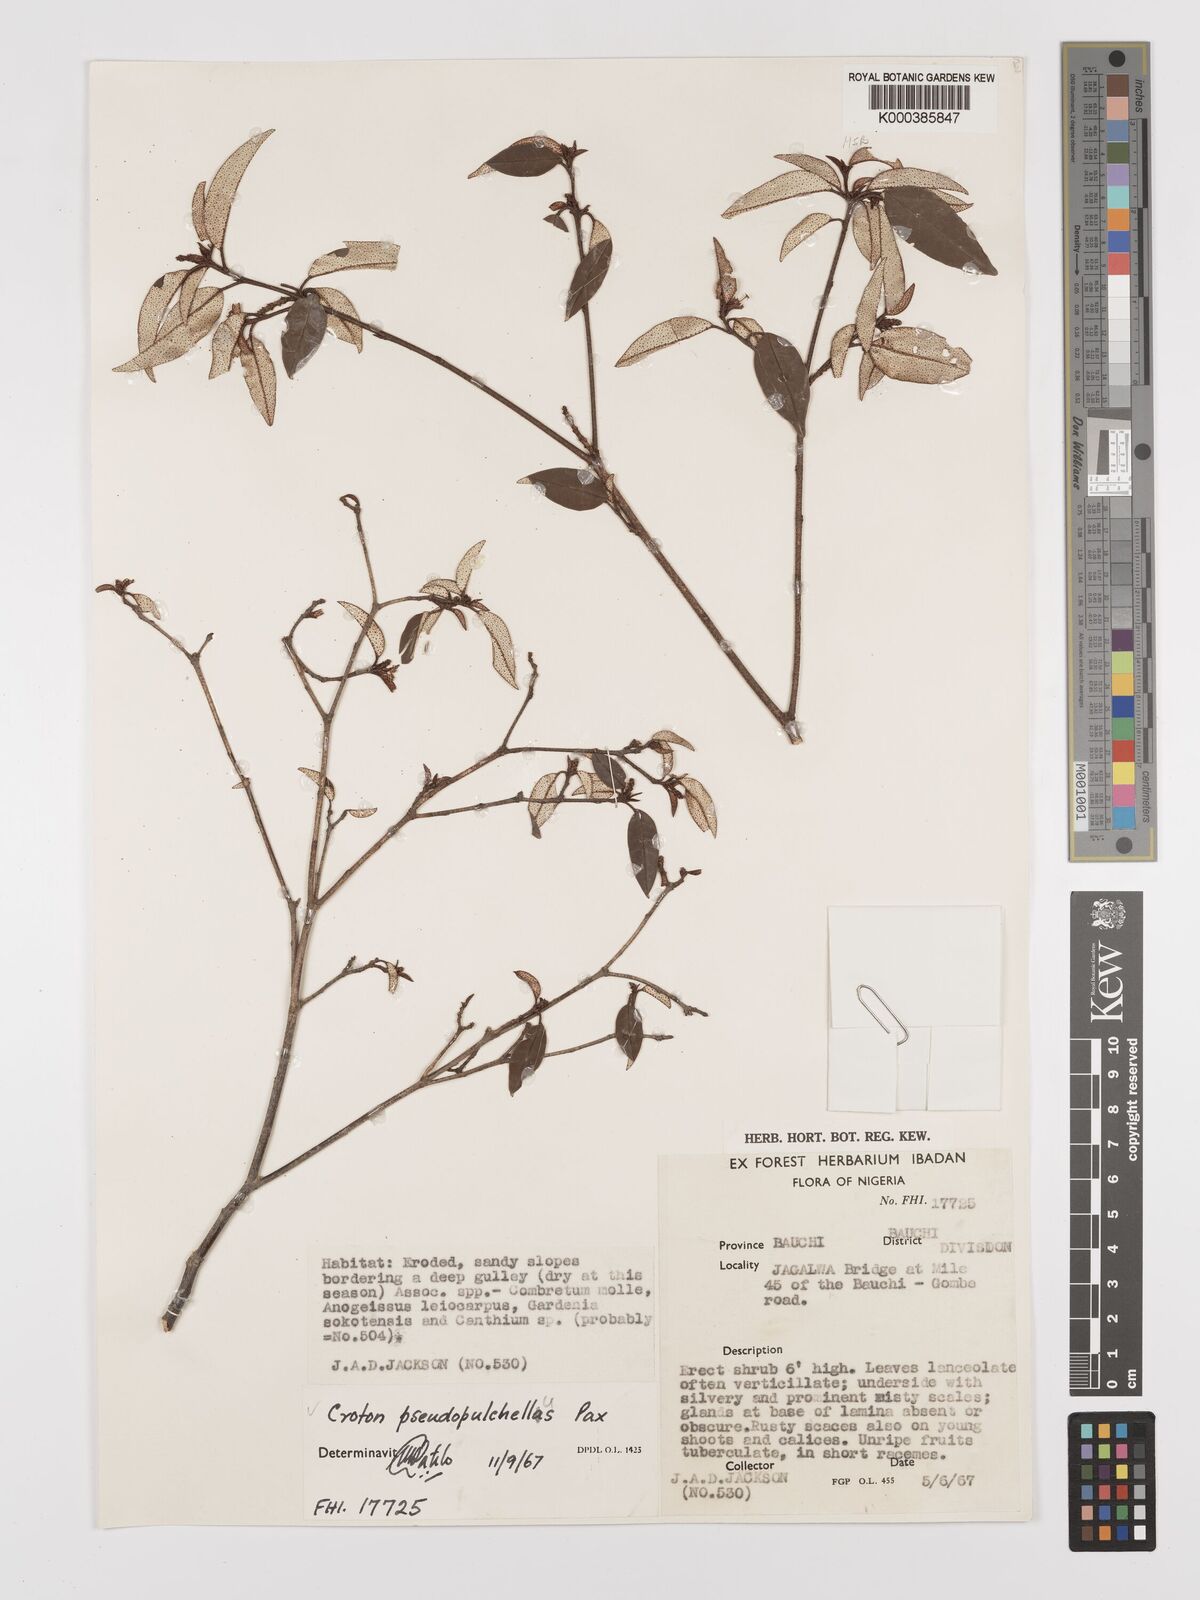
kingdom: Plantae
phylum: Tracheophyta
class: Magnoliopsida
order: Malpighiales
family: Euphorbiaceae
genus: Croton
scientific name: Croton pseudopulchellus
